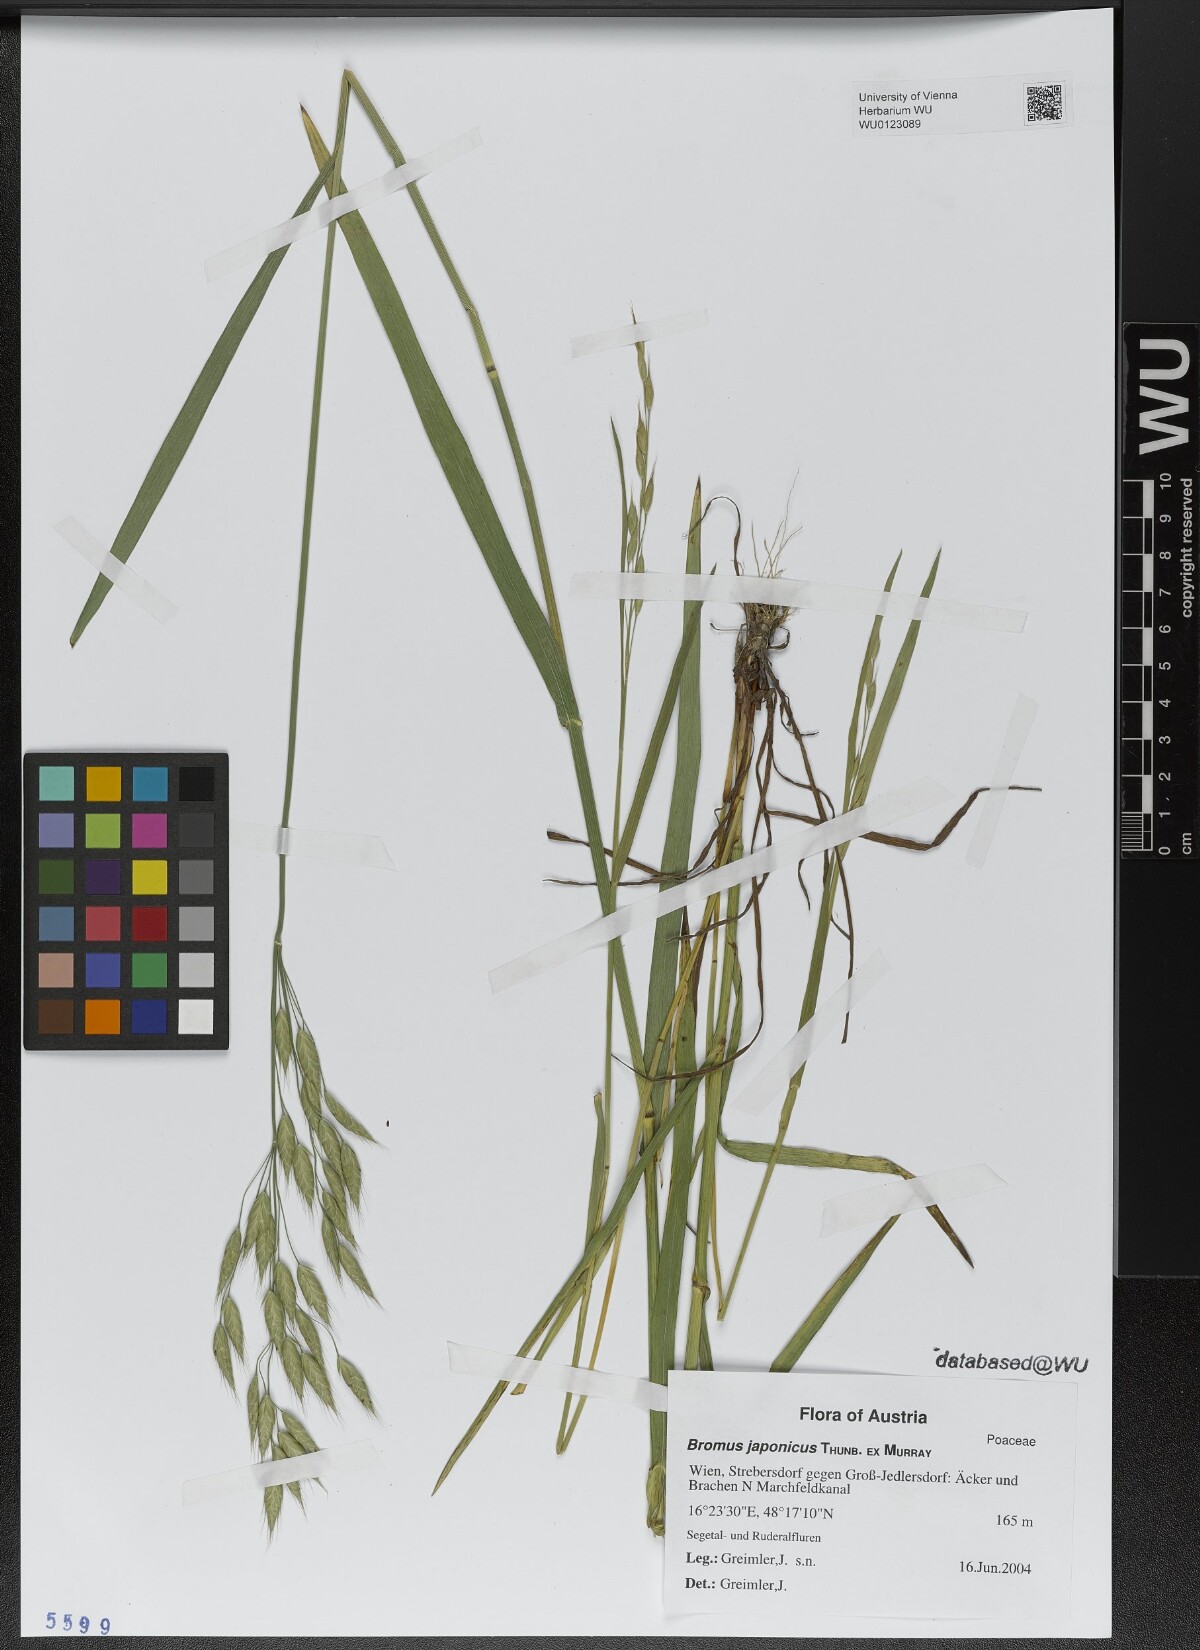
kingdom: Plantae
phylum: Tracheophyta
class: Liliopsida
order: Poales
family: Poaceae
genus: Bromus
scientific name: Bromus japonicus
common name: Japanese brome
